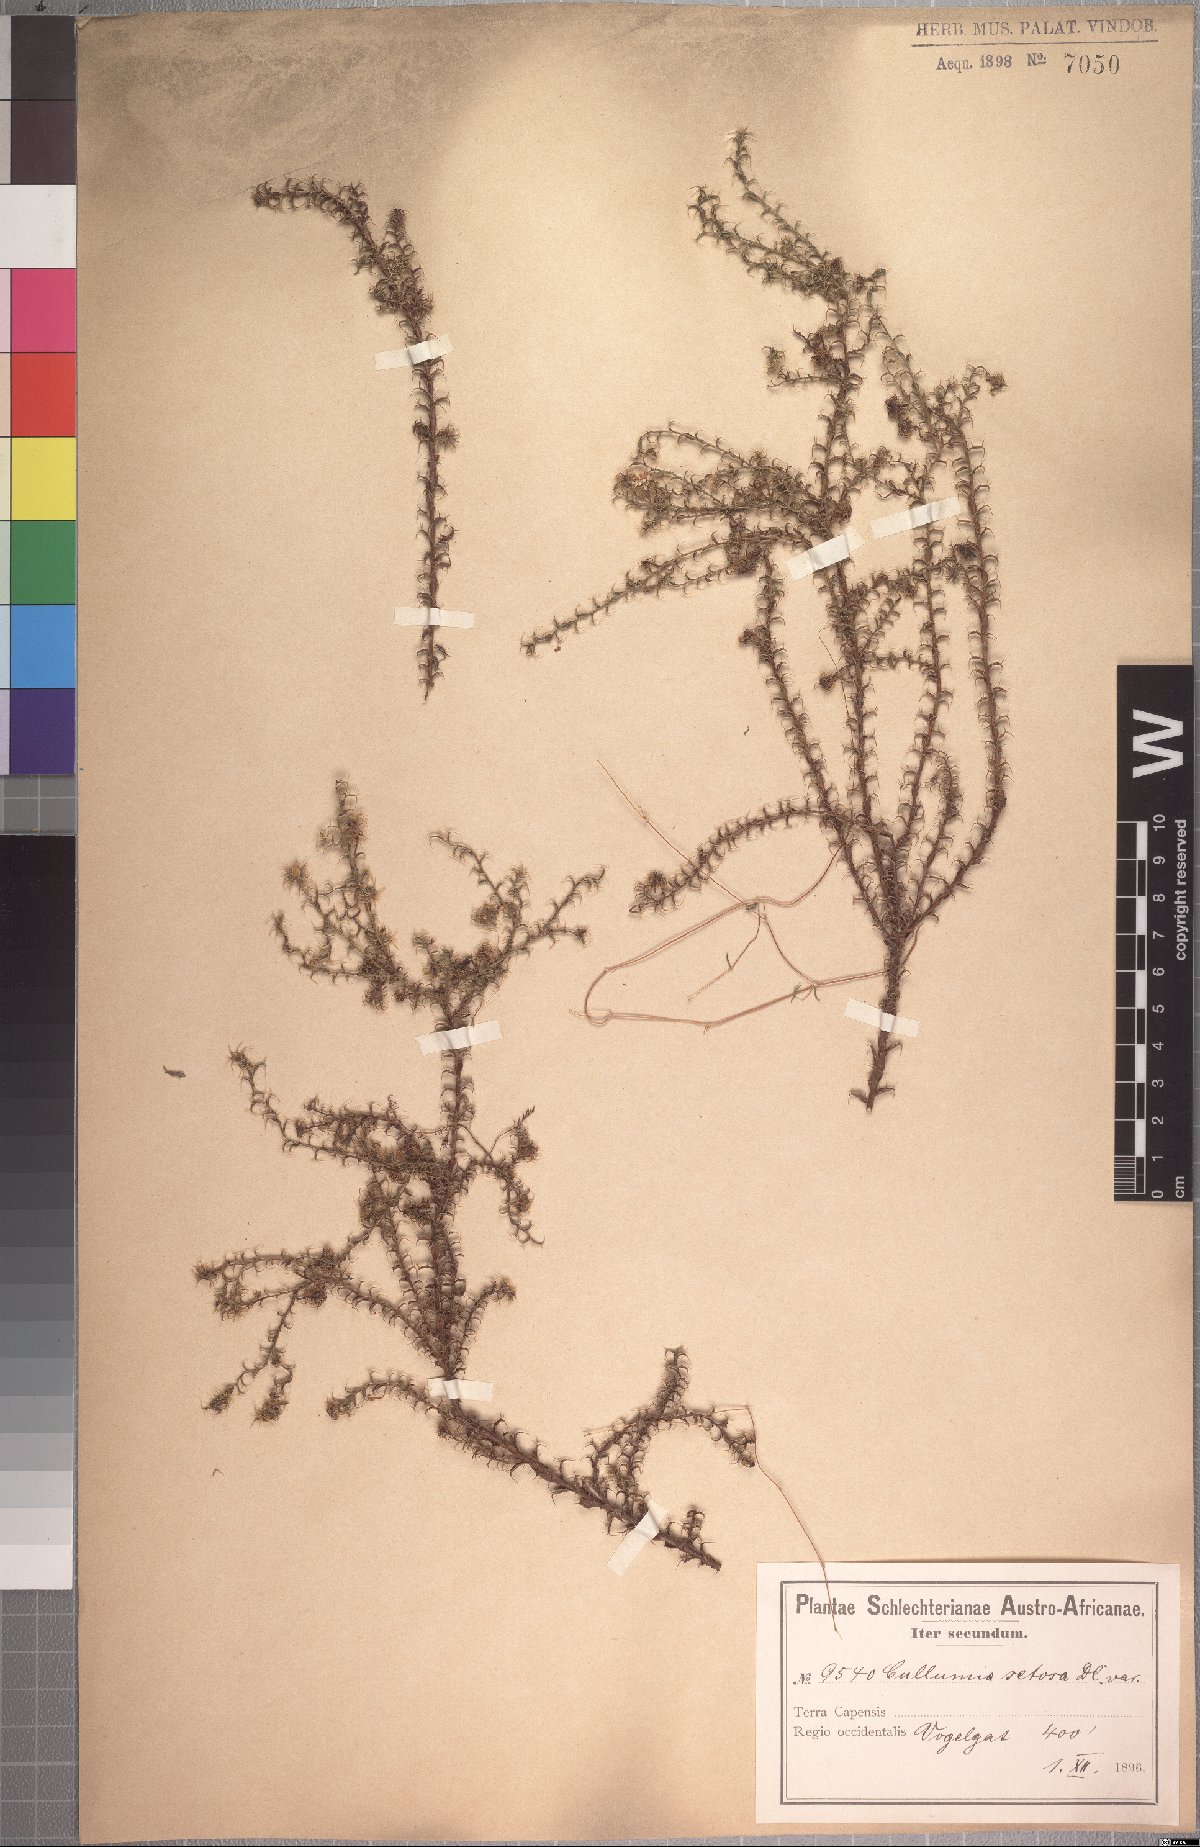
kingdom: Plantae
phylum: Tracheophyta
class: Magnoliopsida
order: Asterales
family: Asteraceae
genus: Cullumia
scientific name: Cullumia setosa
